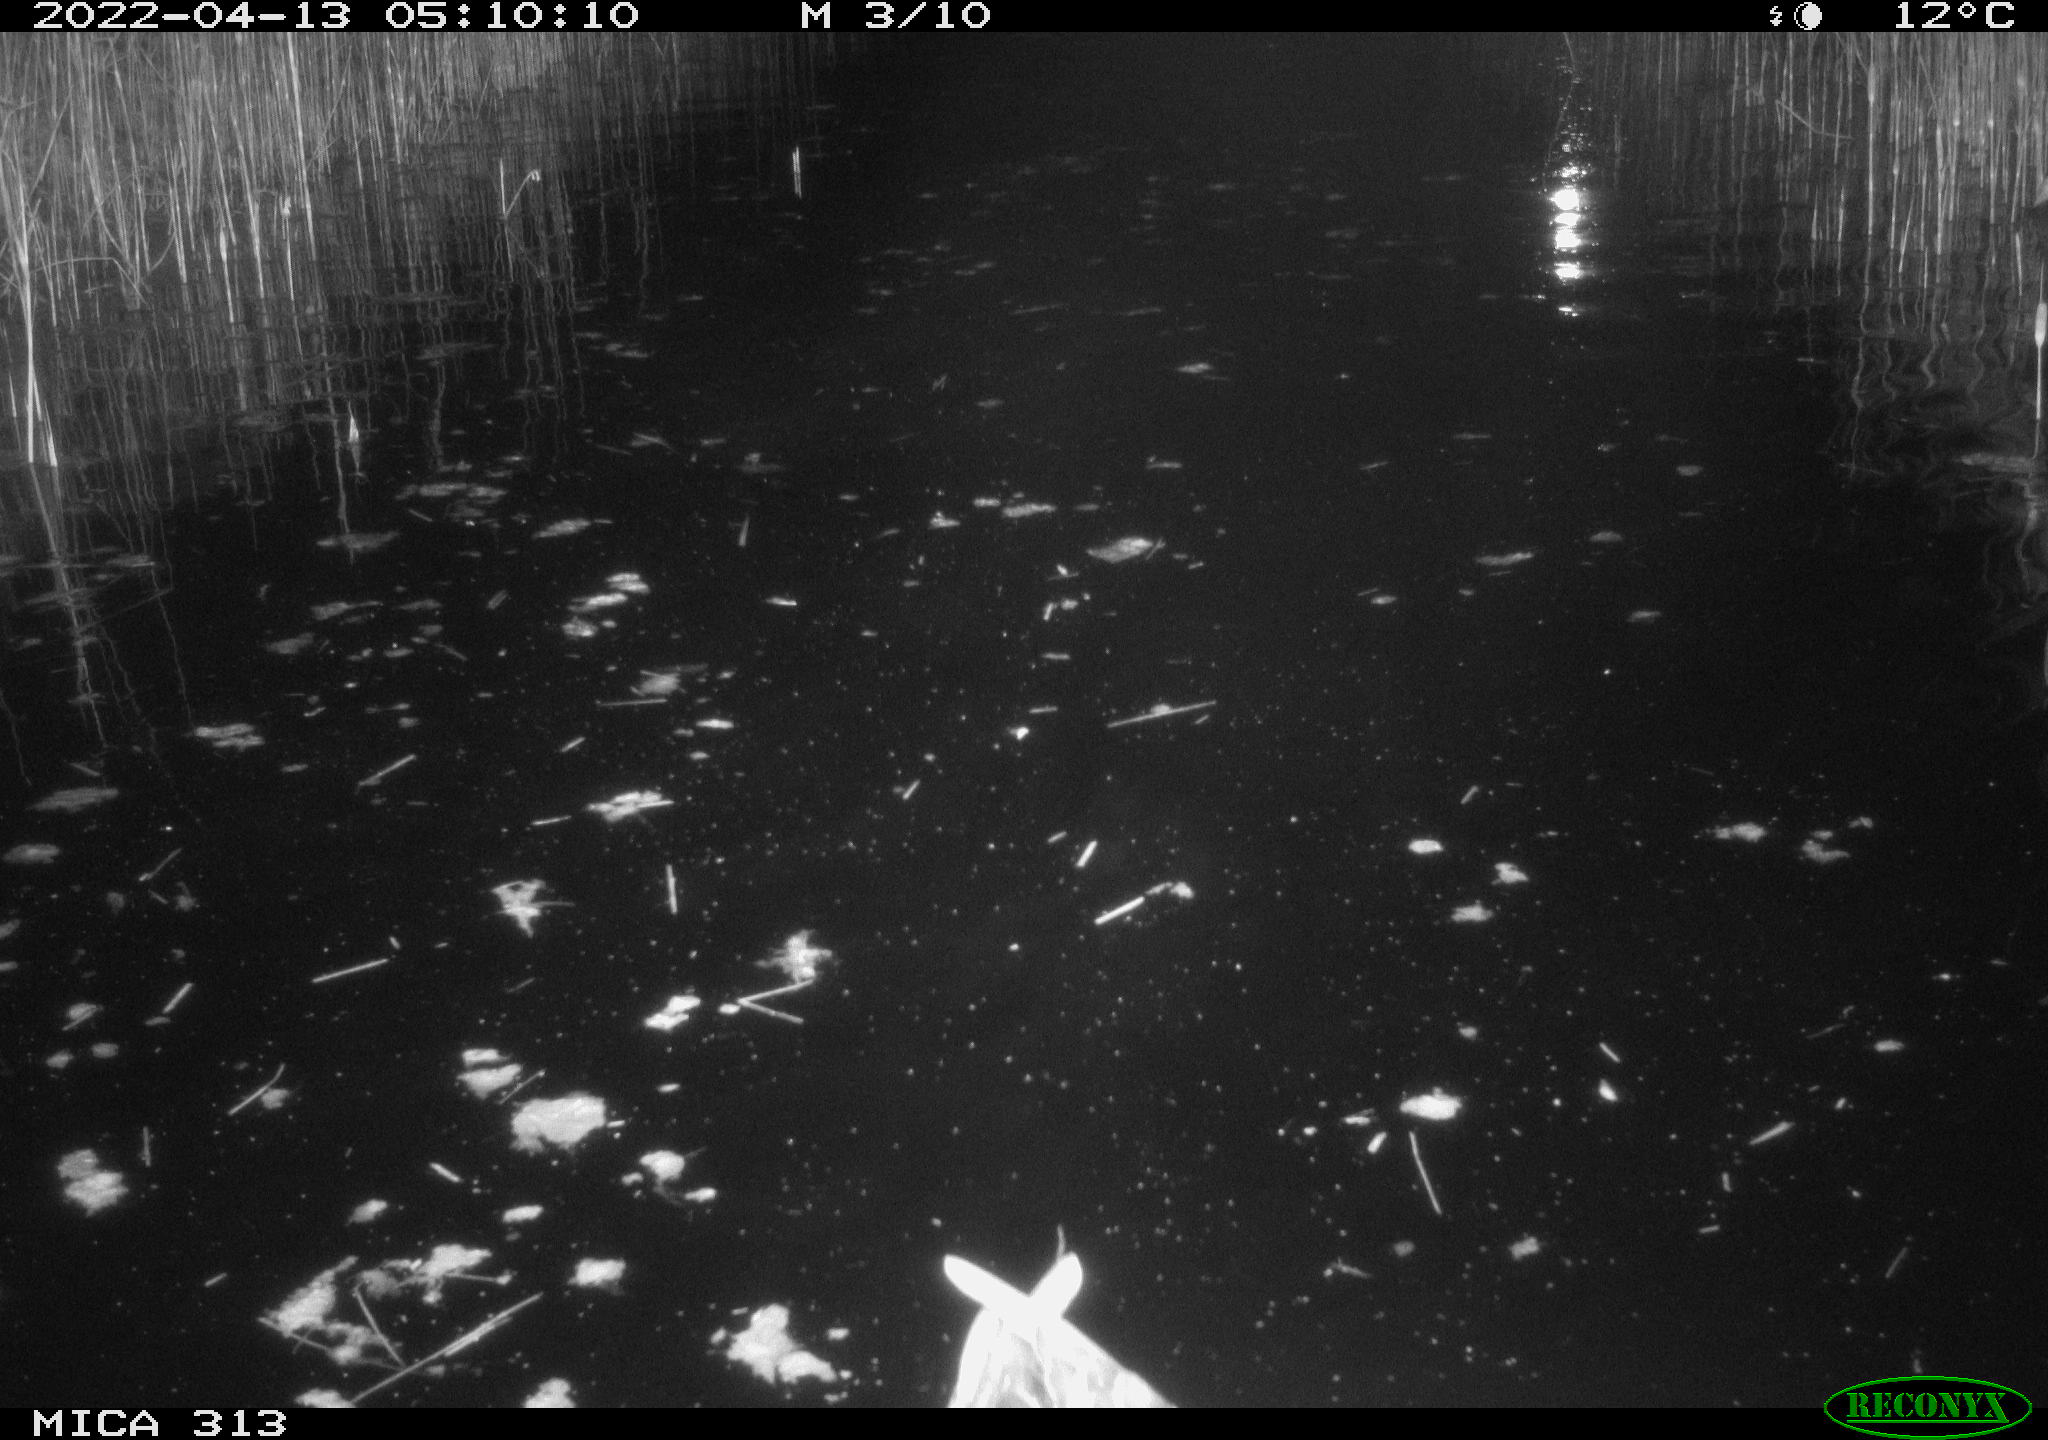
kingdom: Animalia
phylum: Chordata
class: Aves
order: Anseriformes
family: Anatidae
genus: Anas
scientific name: Anas platyrhynchos
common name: Mallard
